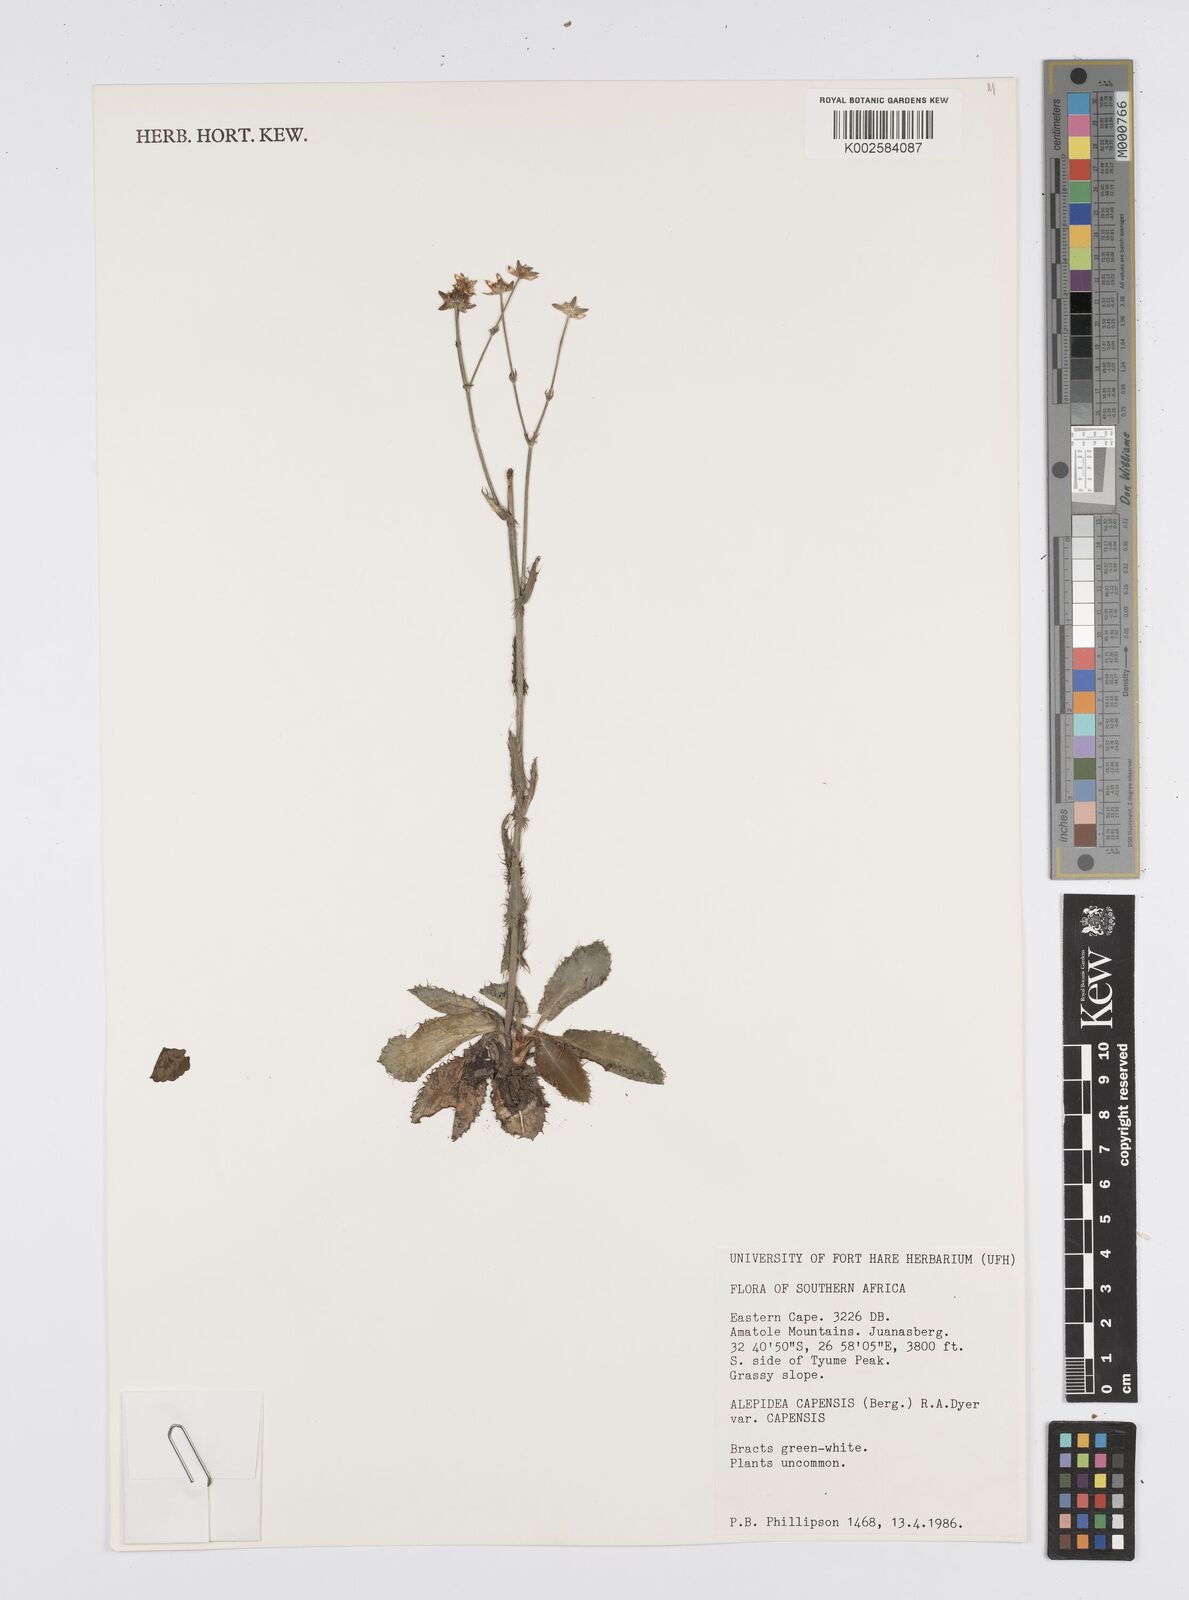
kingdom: Plantae
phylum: Tracheophyta
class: Magnoliopsida
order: Apiales
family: Apiaceae
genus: Alepidea
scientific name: Alepidea capensis
